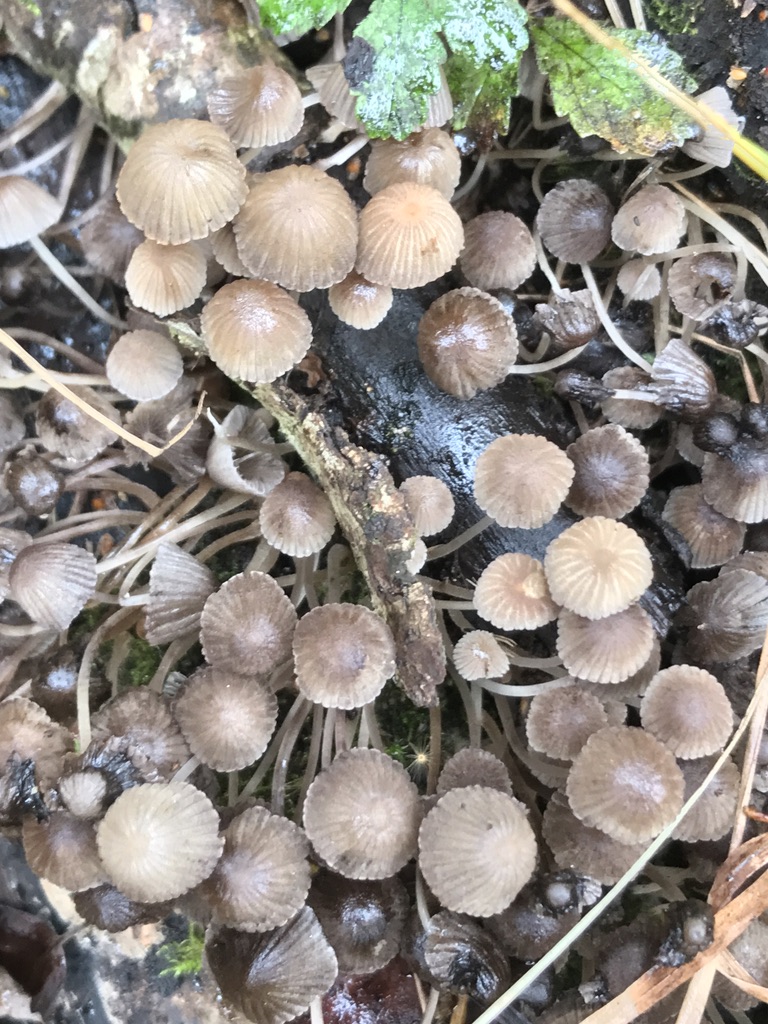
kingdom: Fungi
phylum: Basidiomycota
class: Agaricomycetes
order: Agaricales
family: Psathyrellaceae
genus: Coprinellus
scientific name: Coprinellus disseminatus
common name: bredsået blækhat
